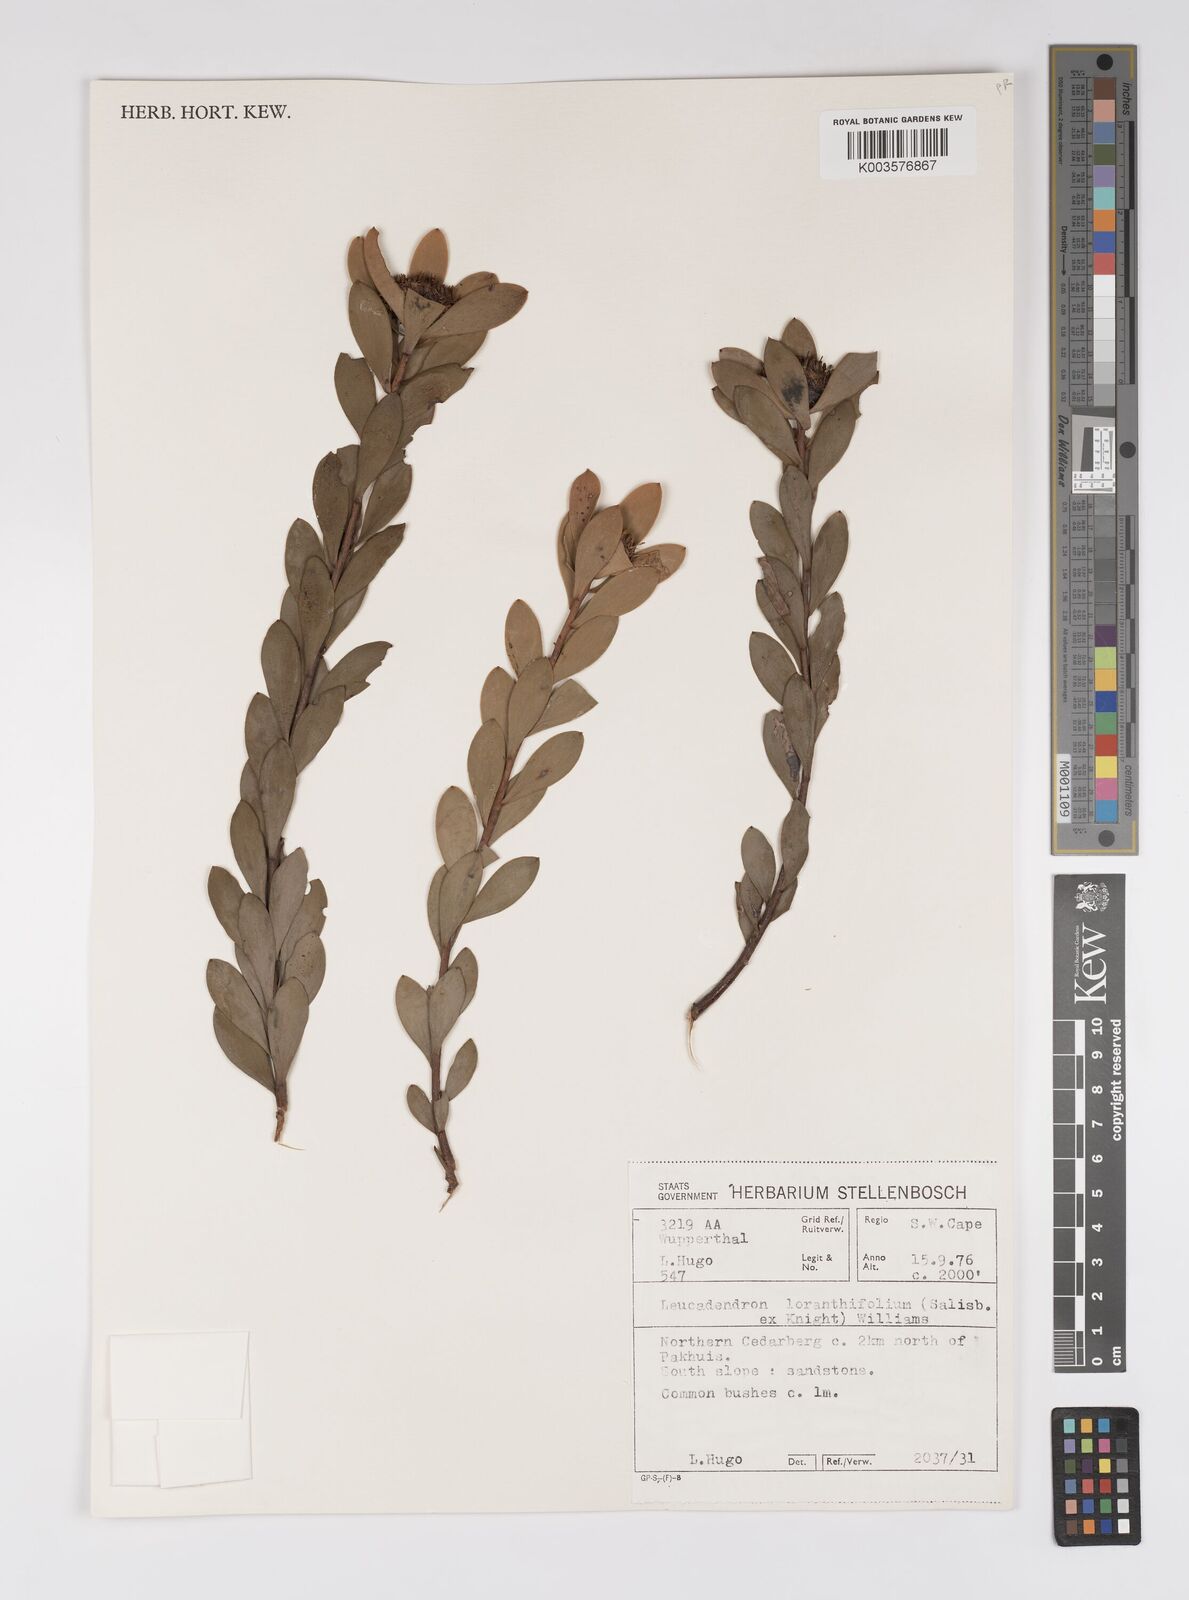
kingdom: Plantae
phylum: Tracheophyta
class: Magnoliopsida
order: Proteales
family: Proteaceae
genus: Leucadendron
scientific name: Leucadendron loranthifolium
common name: Green-flower sunbush
